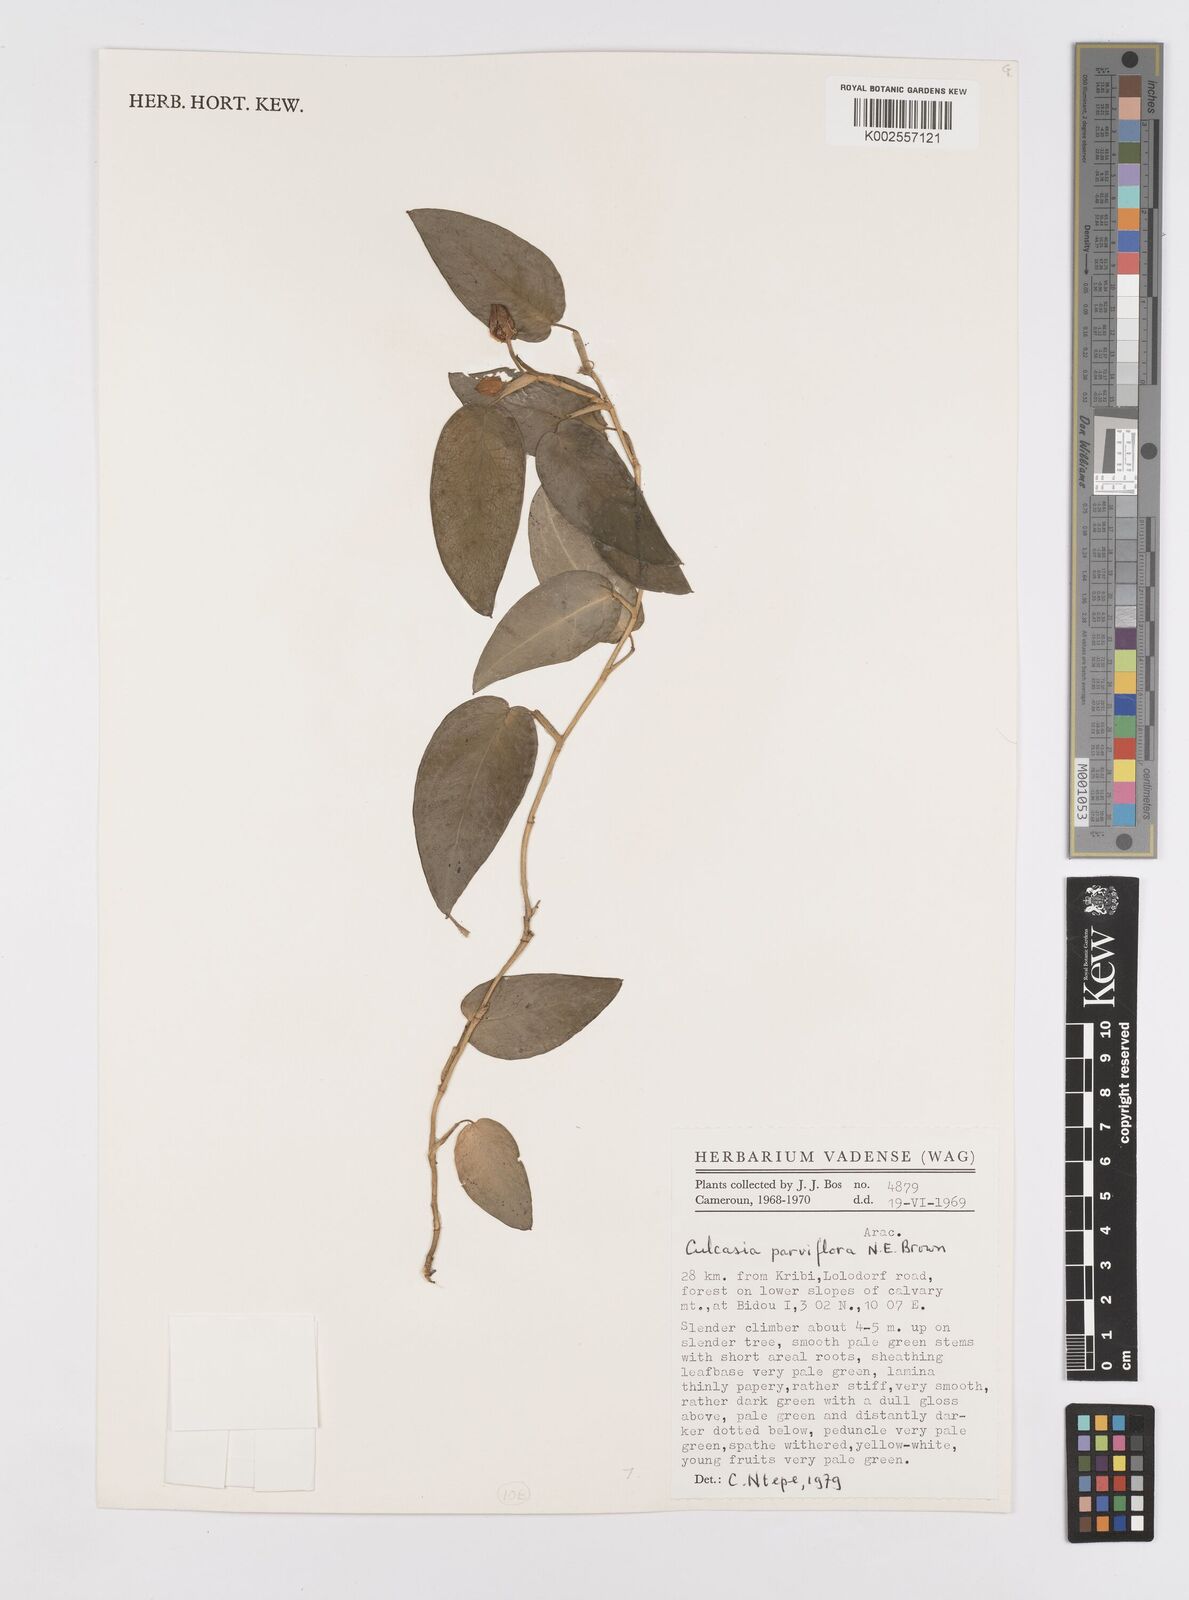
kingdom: Plantae
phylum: Tracheophyta
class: Liliopsida
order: Alismatales
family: Araceae
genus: Culcasia
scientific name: Culcasia parviflora
